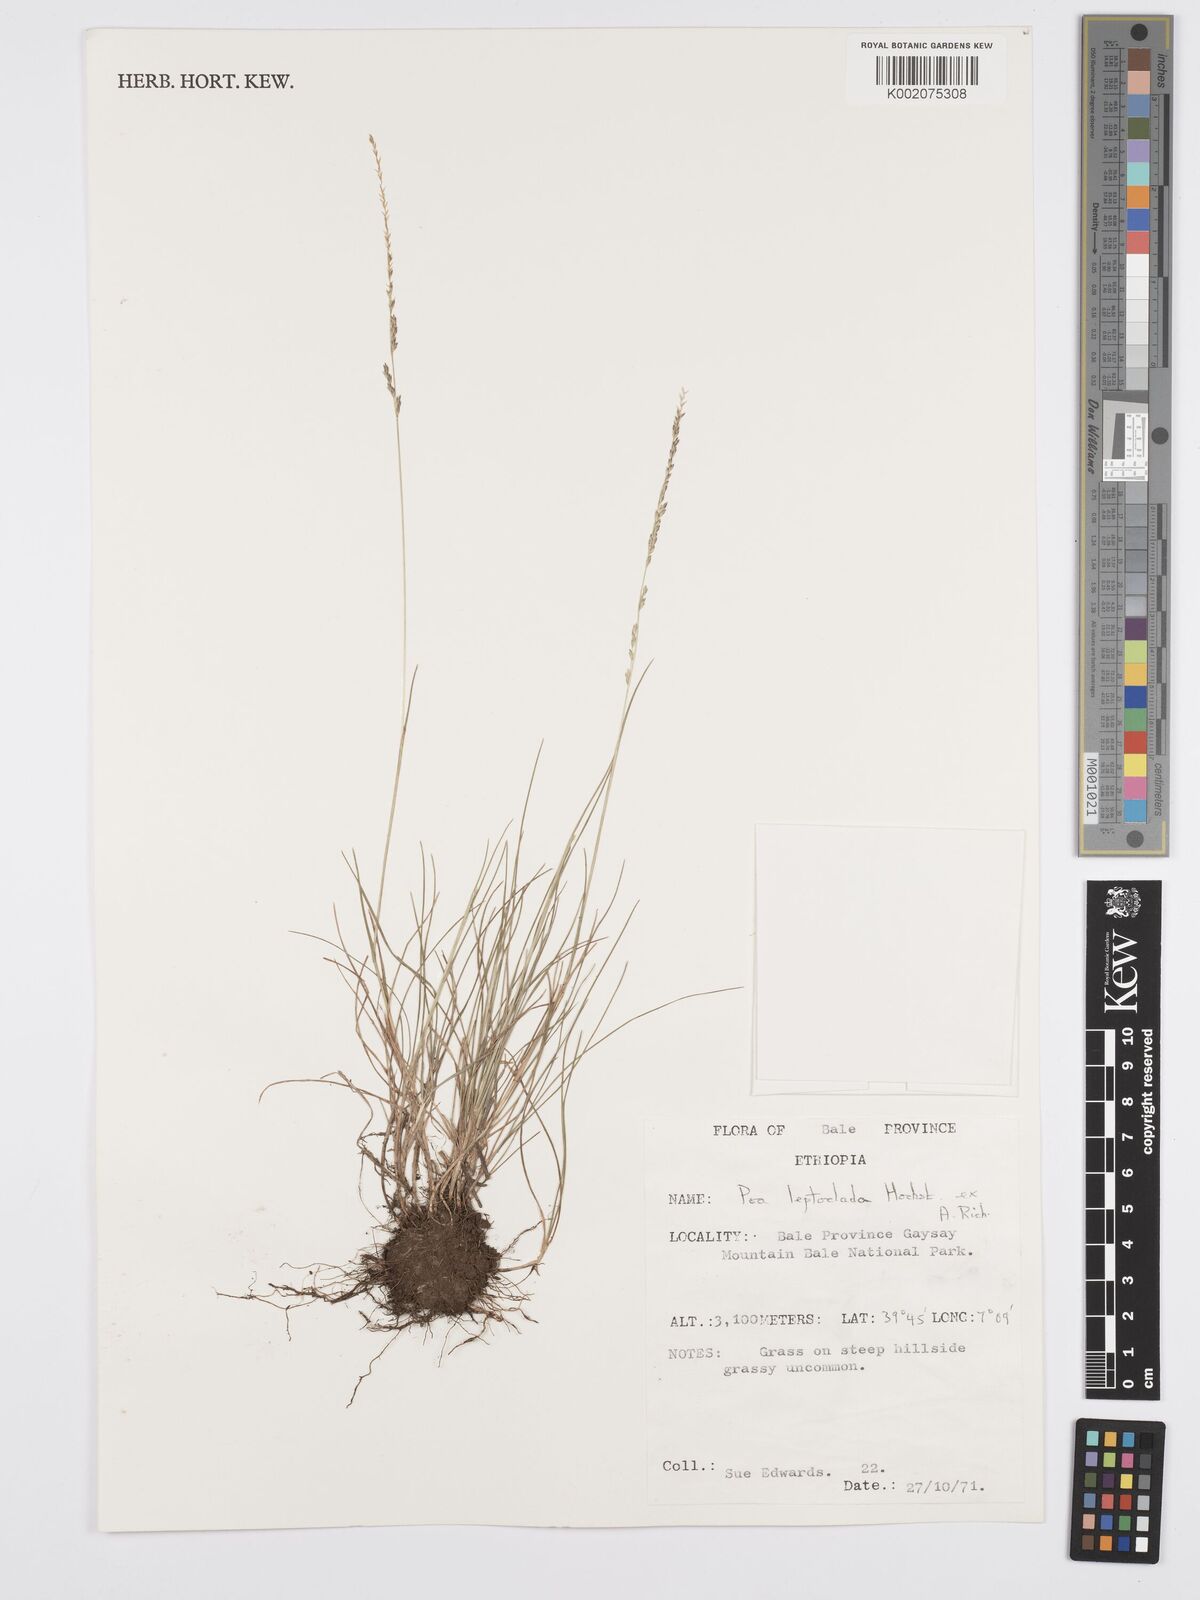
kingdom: Plantae
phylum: Tracheophyta
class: Liliopsida
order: Poales
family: Poaceae
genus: Poa
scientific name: Poa leptoclada
